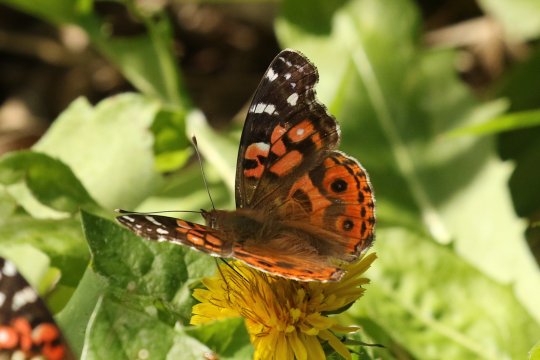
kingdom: Animalia
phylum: Arthropoda
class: Insecta
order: Lepidoptera
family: Nymphalidae
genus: Vanessa
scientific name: Vanessa braziliensis
